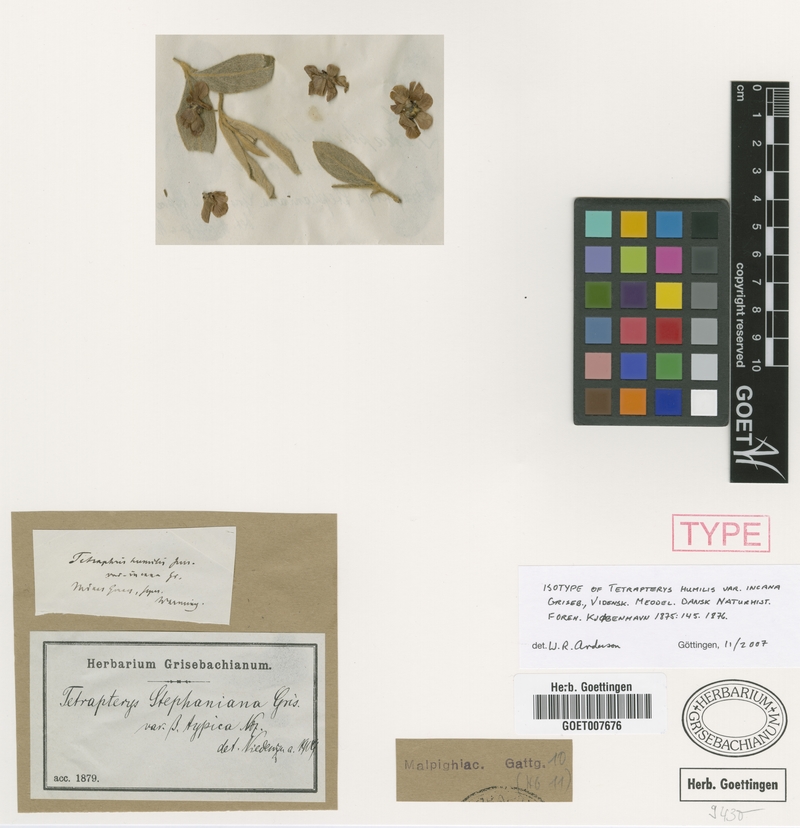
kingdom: Plantae
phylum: Tracheophyta
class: Magnoliopsida
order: Malpighiales
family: Malpighiaceae
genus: Glicophyllum
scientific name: Glicophyllum humile
